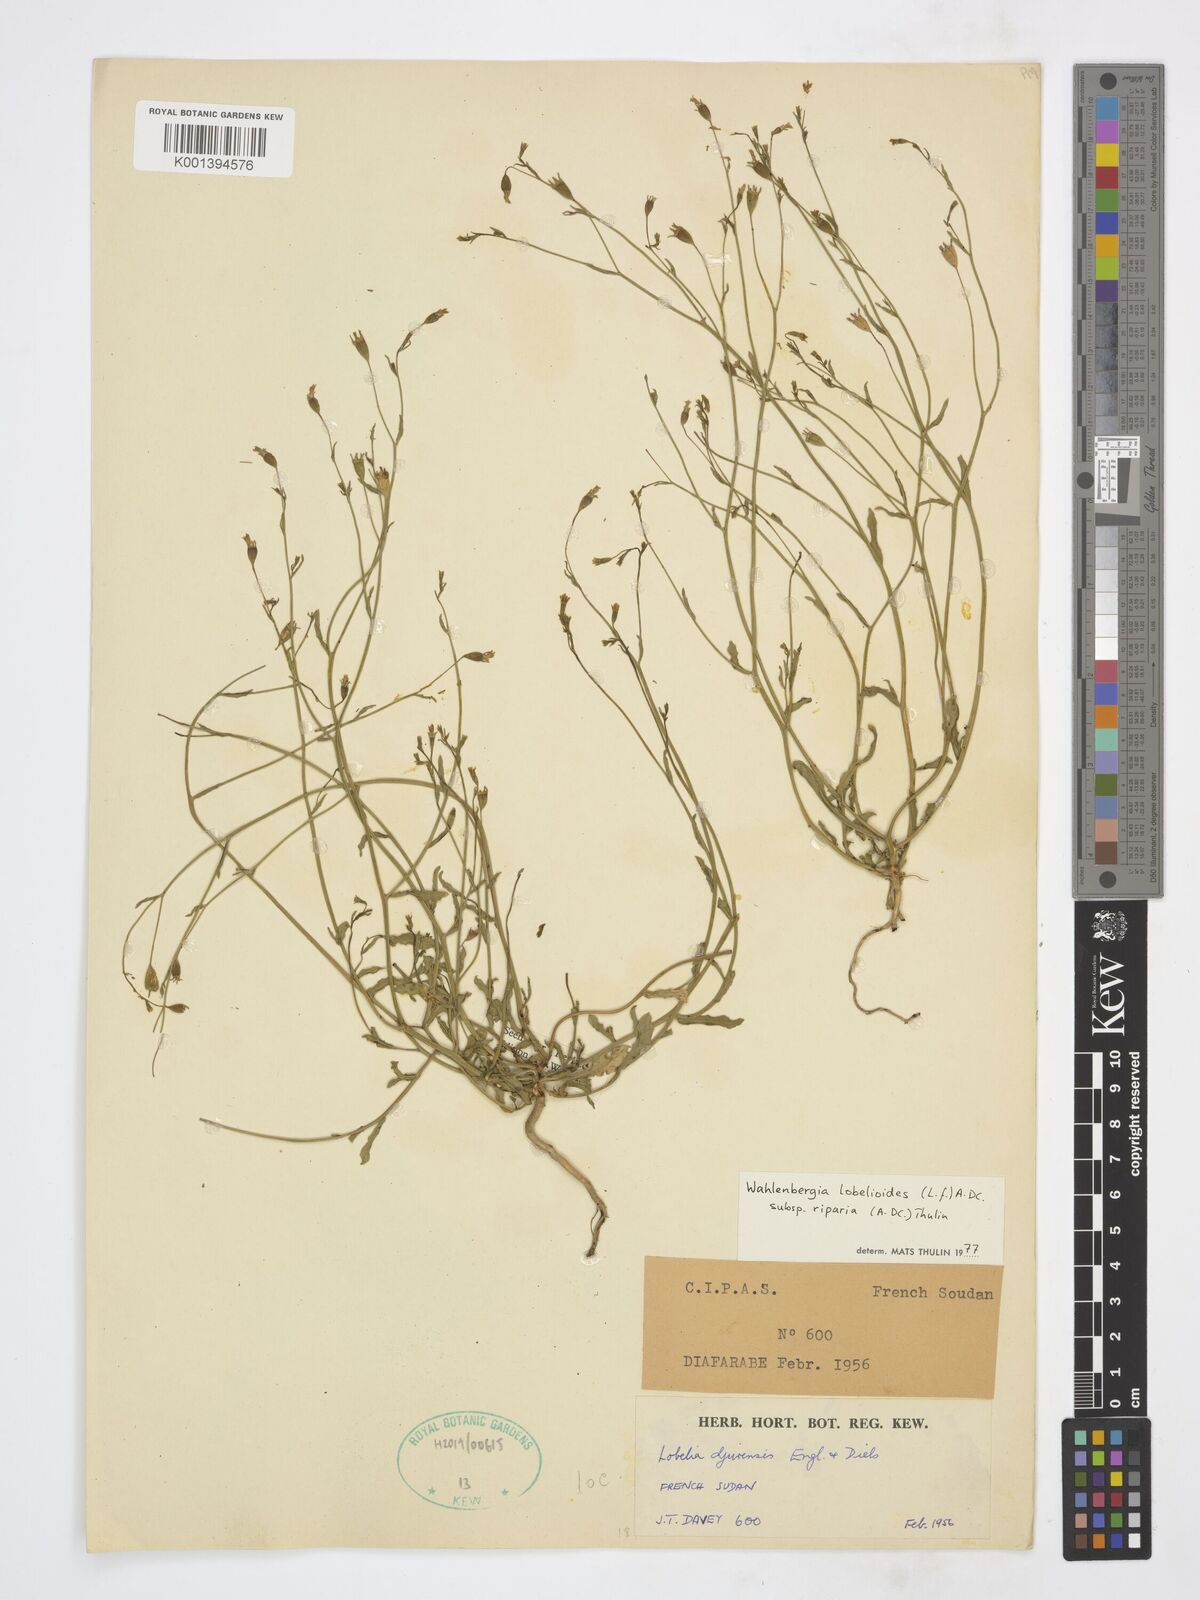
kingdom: Plantae
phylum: Tracheophyta
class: Magnoliopsida
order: Asterales
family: Campanulaceae
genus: Wahlenbergia
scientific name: Wahlenbergia lobelioides
